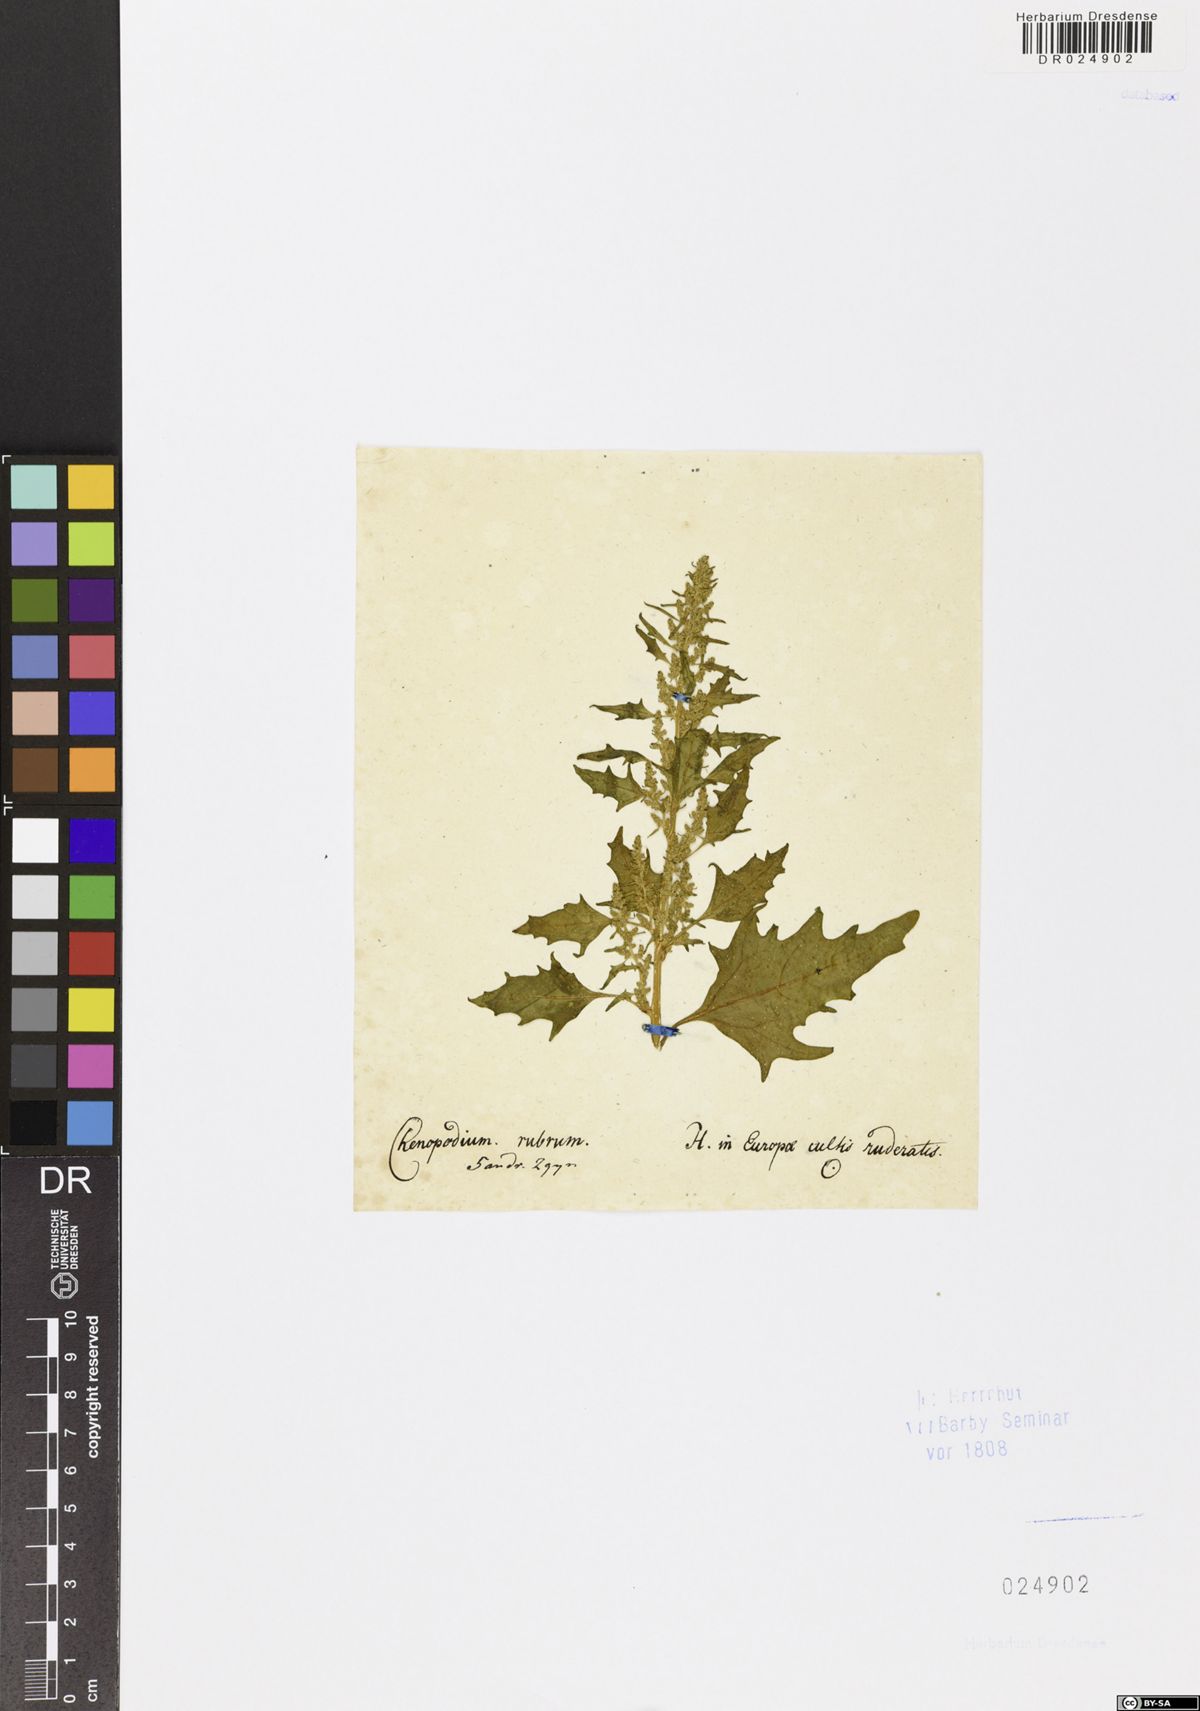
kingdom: Plantae
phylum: Tracheophyta
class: Magnoliopsida
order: Caryophyllales
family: Amaranthaceae
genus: Oxybasis
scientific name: Oxybasis rubra
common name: Red goosefoot
